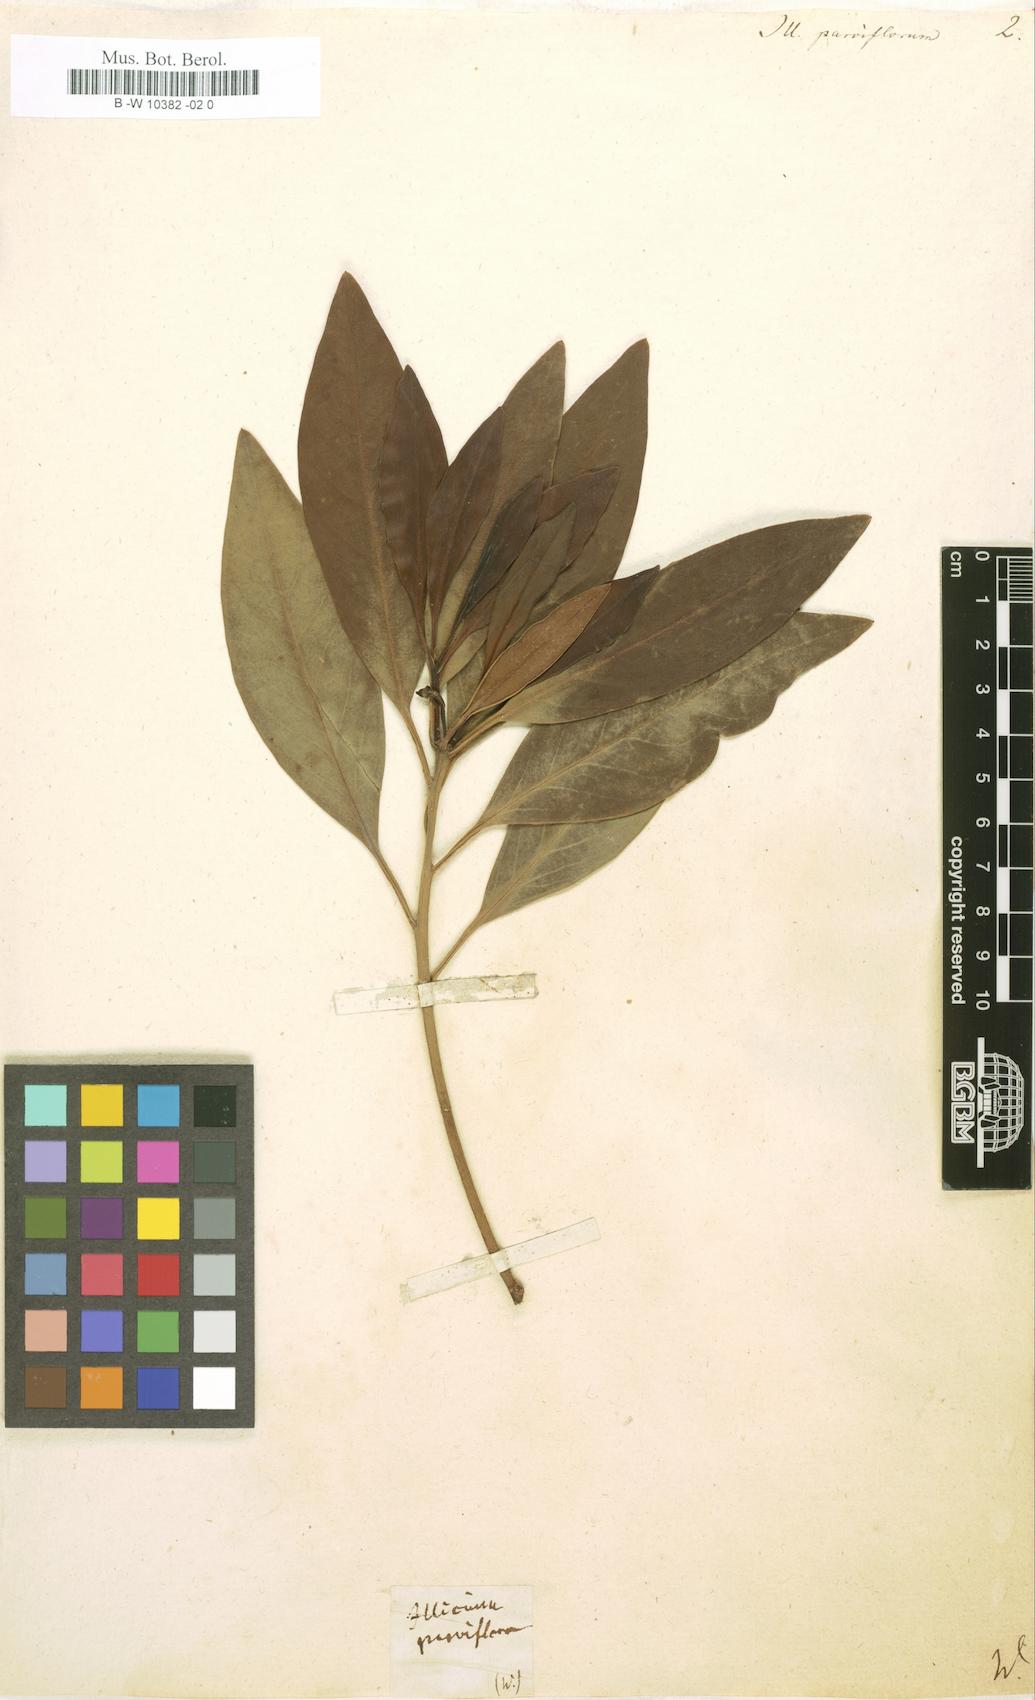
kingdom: Plantae
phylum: Tracheophyta
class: Magnoliopsida
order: Austrobaileyales
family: Schisandraceae
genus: Illicium
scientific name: Illicium parviflorum
